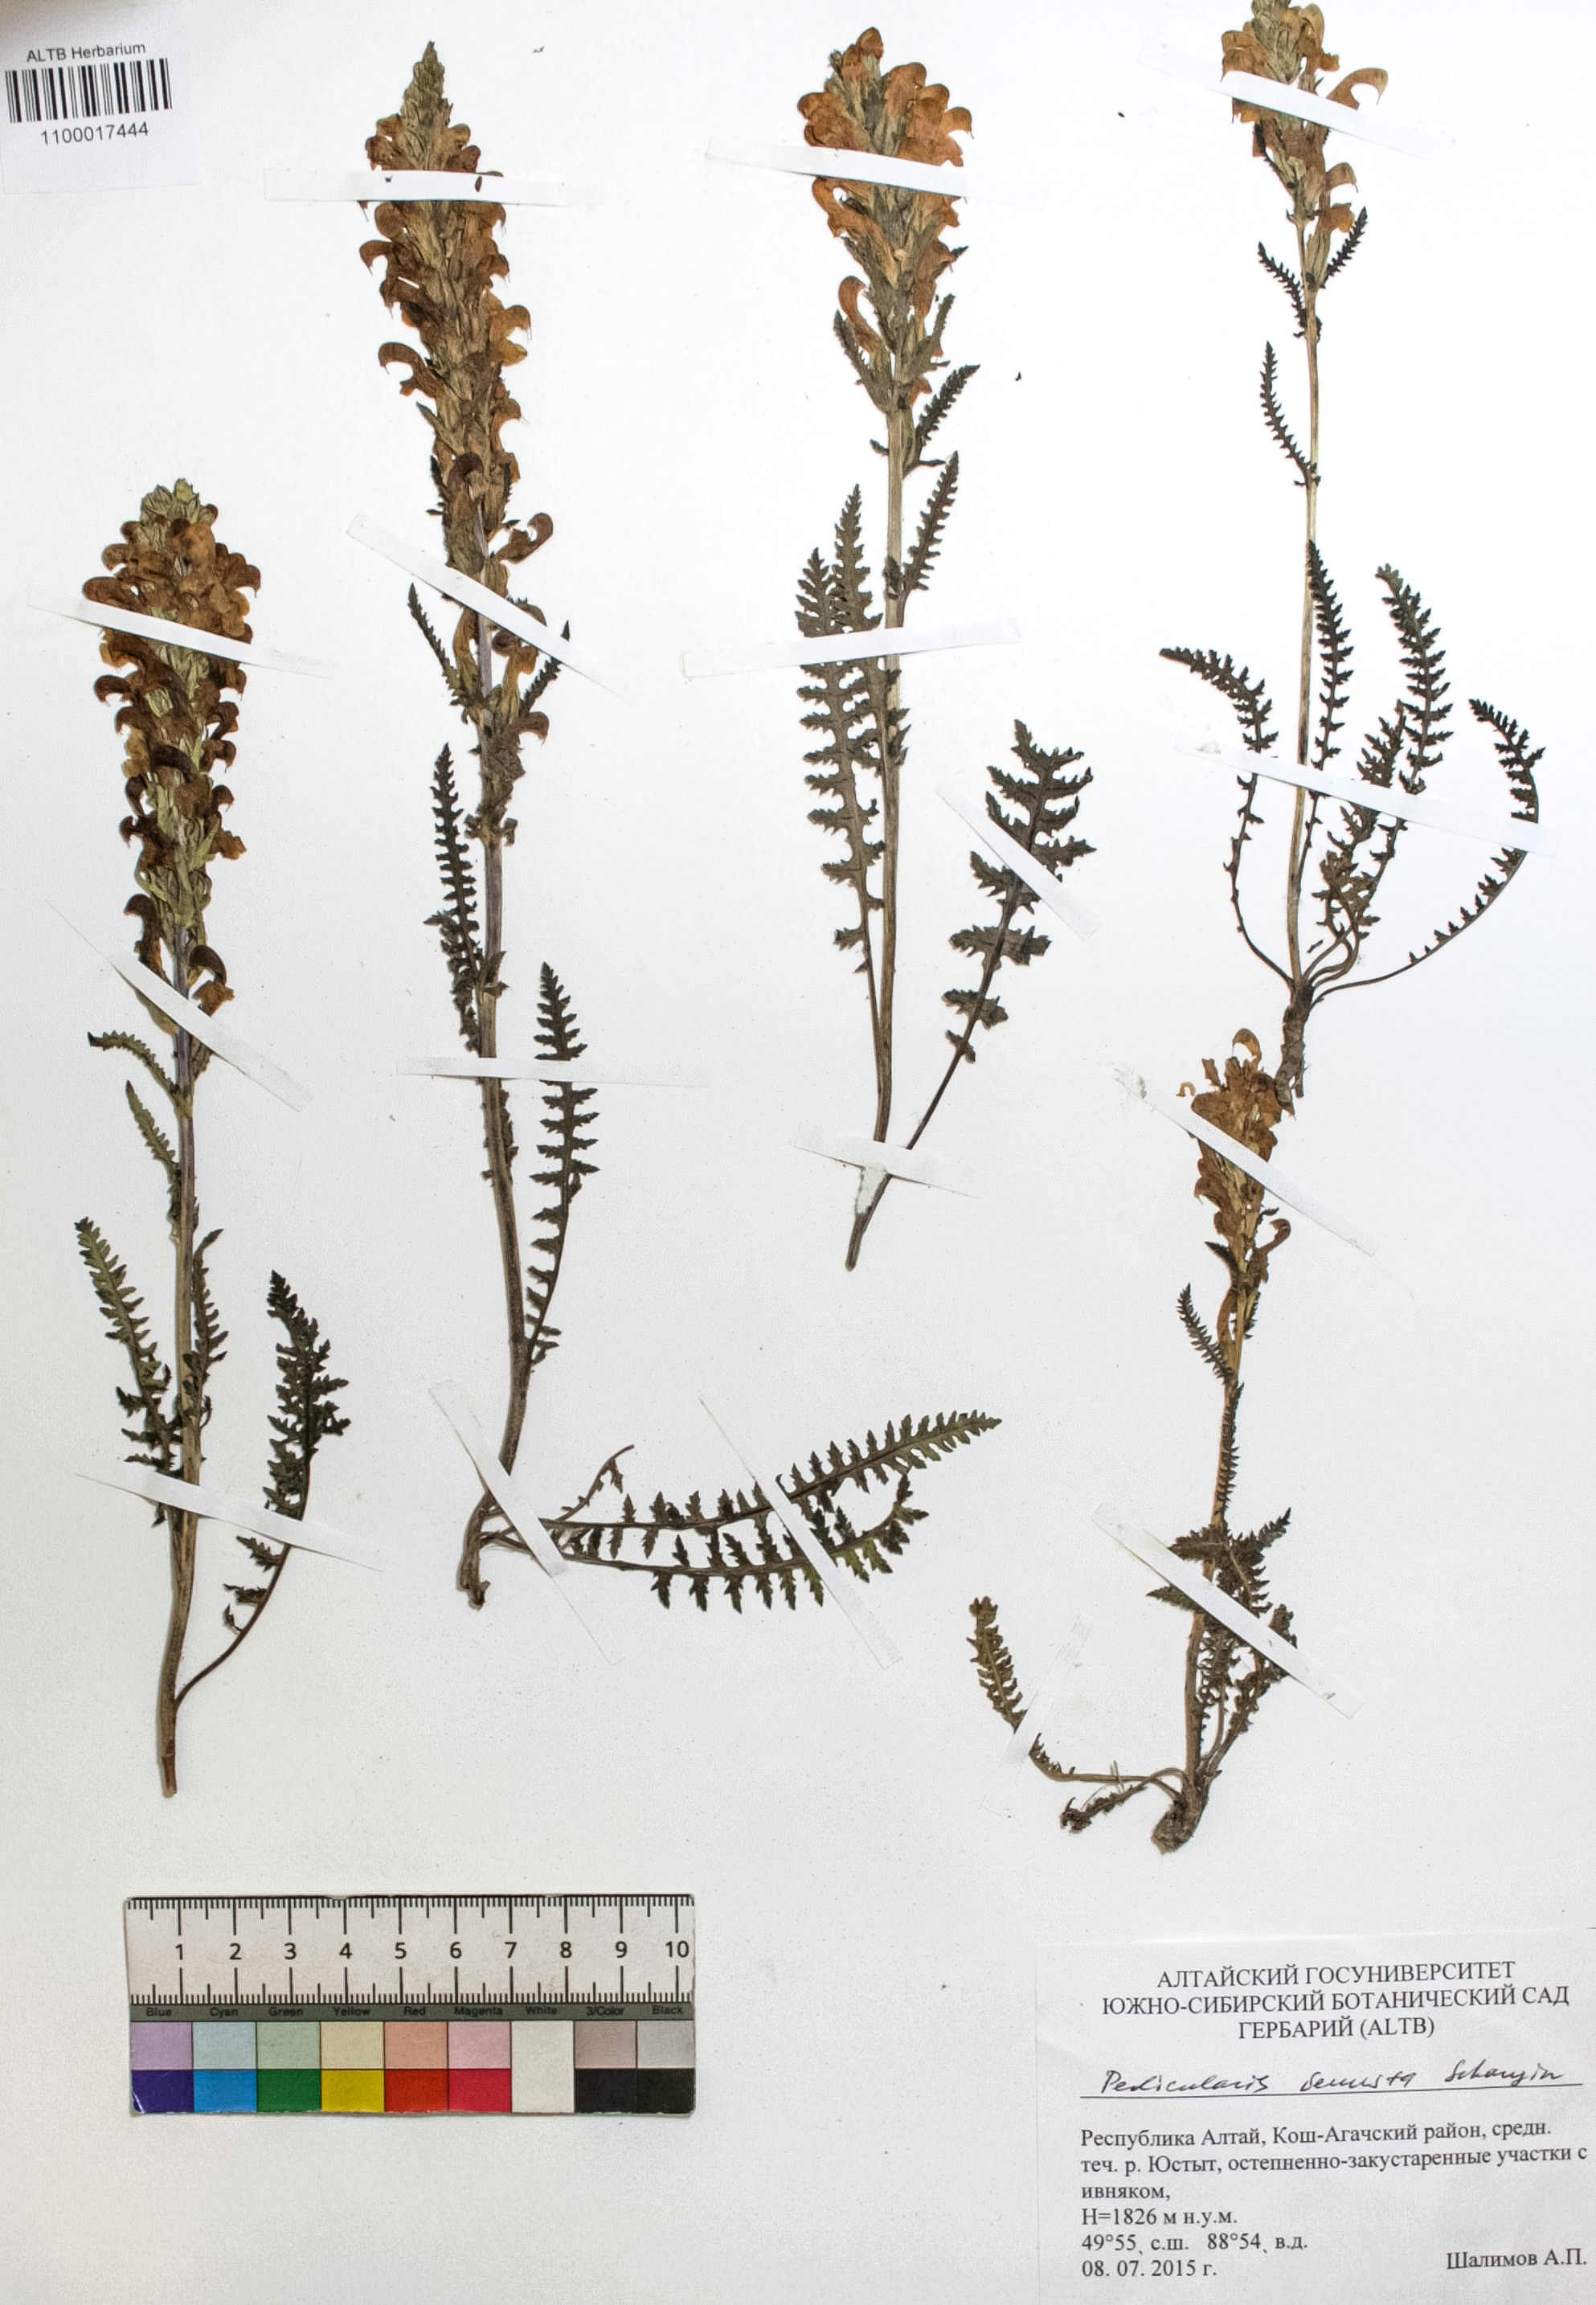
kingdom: Plantae
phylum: Tracheophyta
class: Magnoliopsida
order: Lamiales
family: Orobanchaceae
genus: Pedicularis
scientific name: Pedicularis venusta
